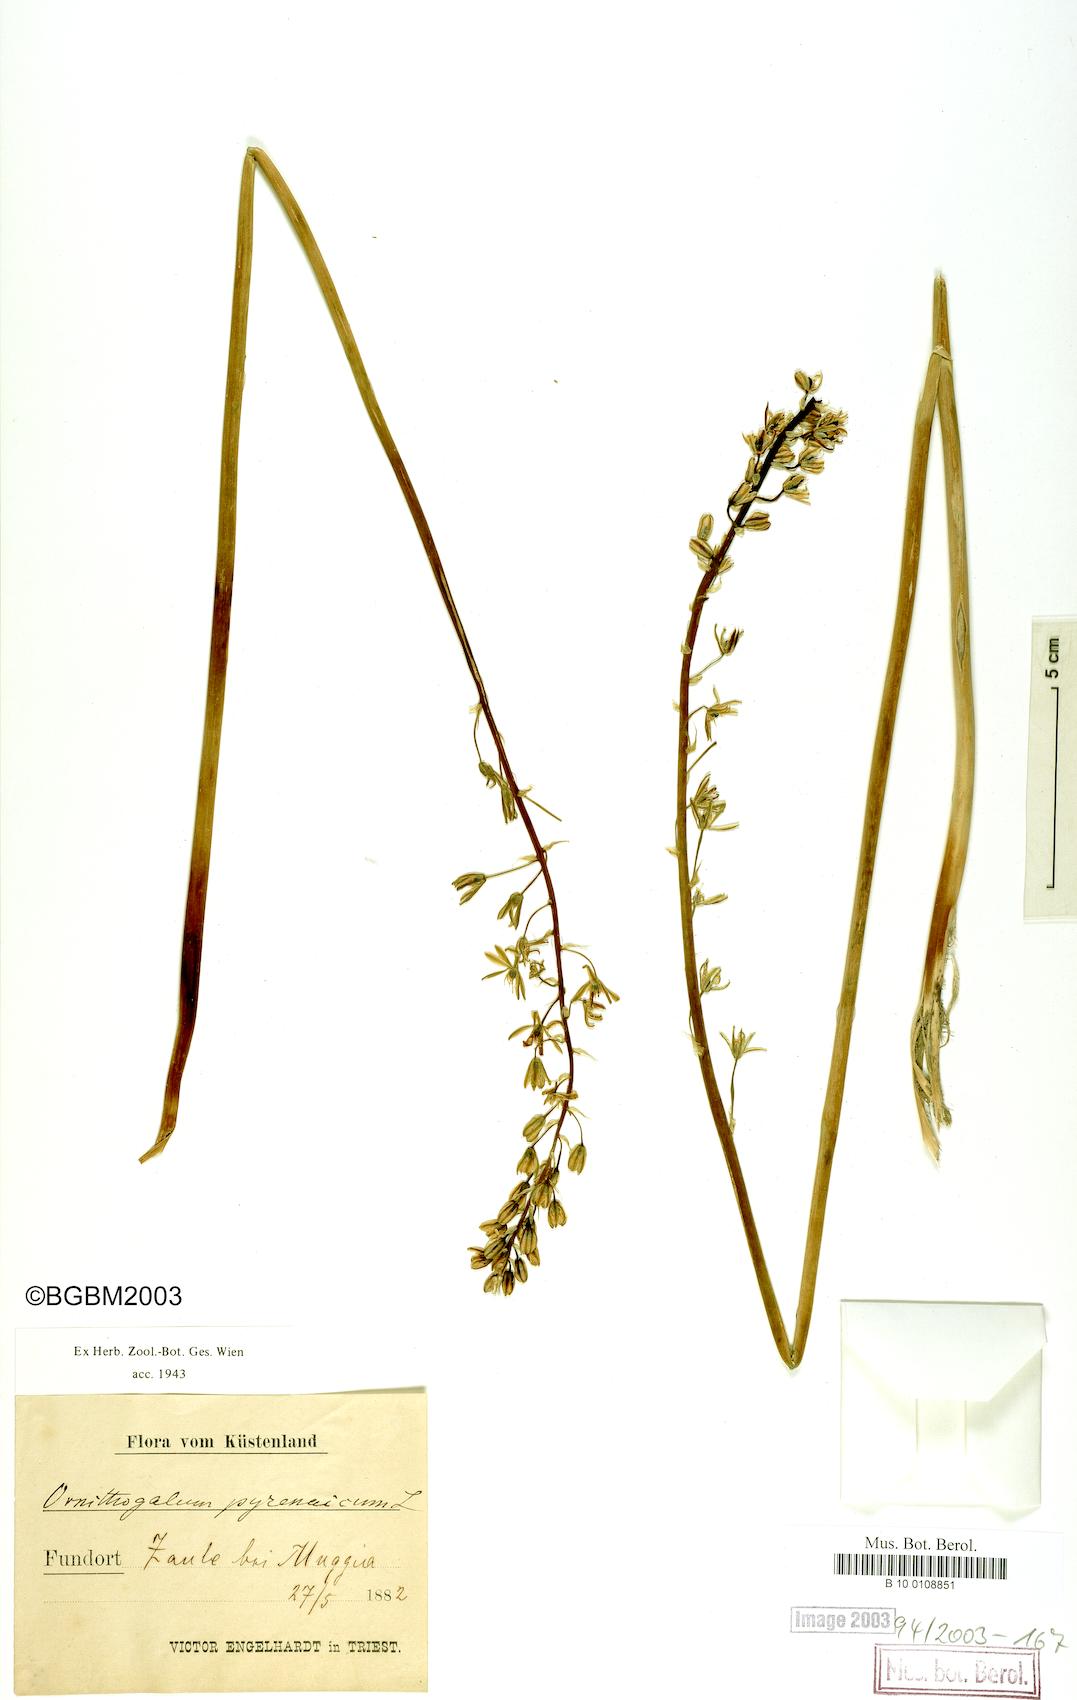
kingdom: Plantae
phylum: Tracheophyta
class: Liliopsida
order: Asparagales
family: Asparagaceae
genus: Ornithogalum
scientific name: Ornithogalum pyrenaicum
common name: Spiked star-of-bethlehem
